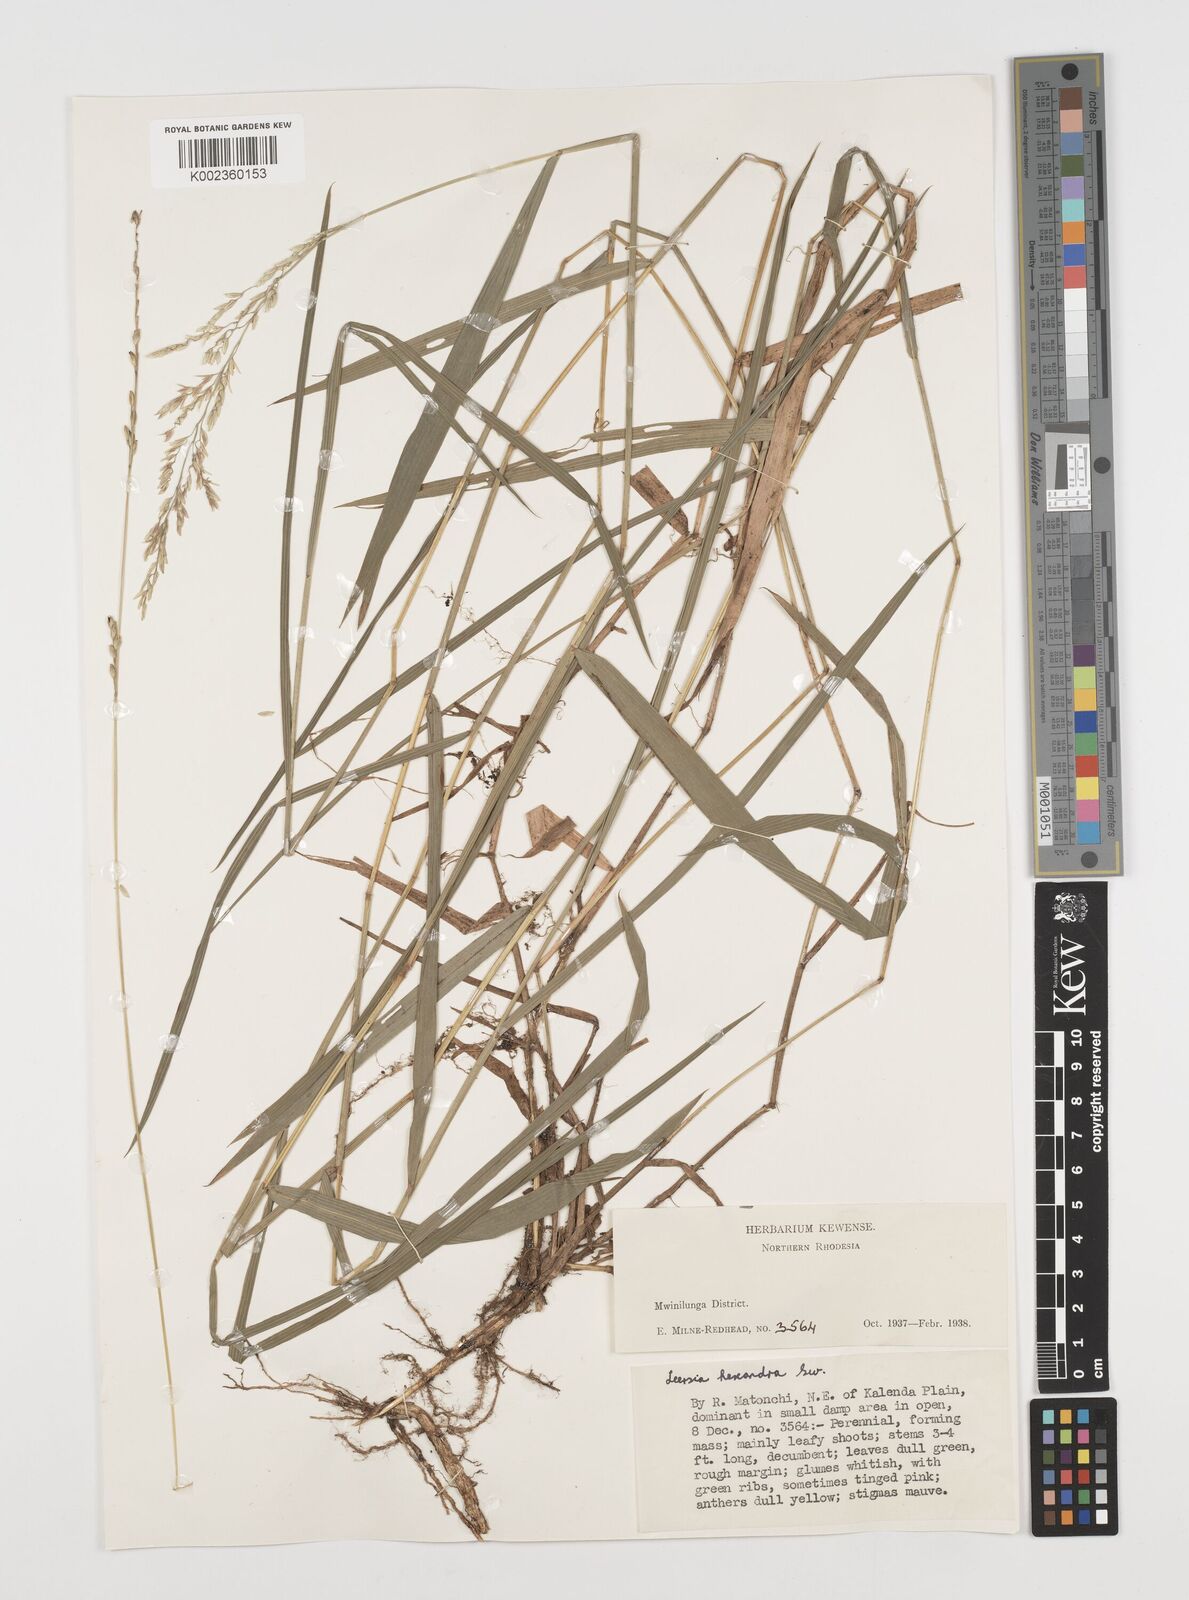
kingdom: Plantae
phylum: Tracheophyta
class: Liliopsida
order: Poales
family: Poaceae
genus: Leersia
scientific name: Leersia hexandra
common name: Southern cut grass
